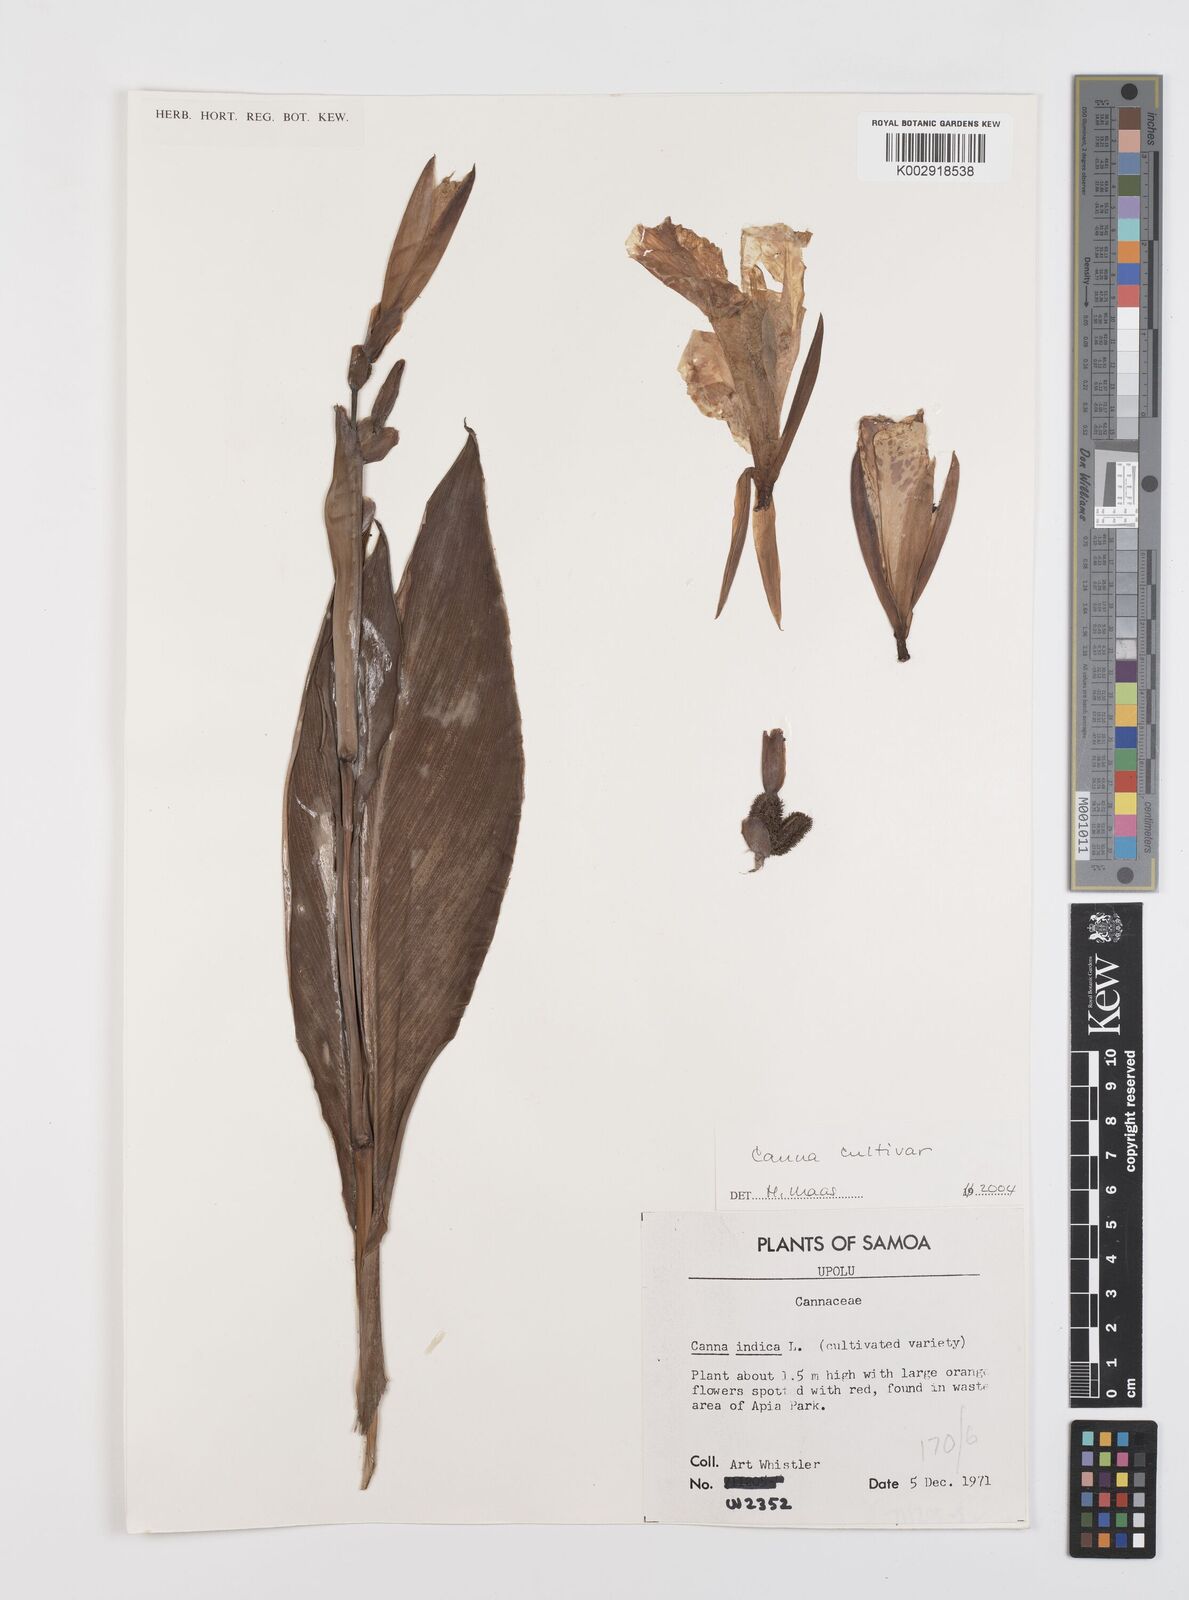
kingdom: Plantae
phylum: Tracheophyta
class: Liliopsida
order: Zingiberales
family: Cannaceae
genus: Canna
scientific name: Canna
